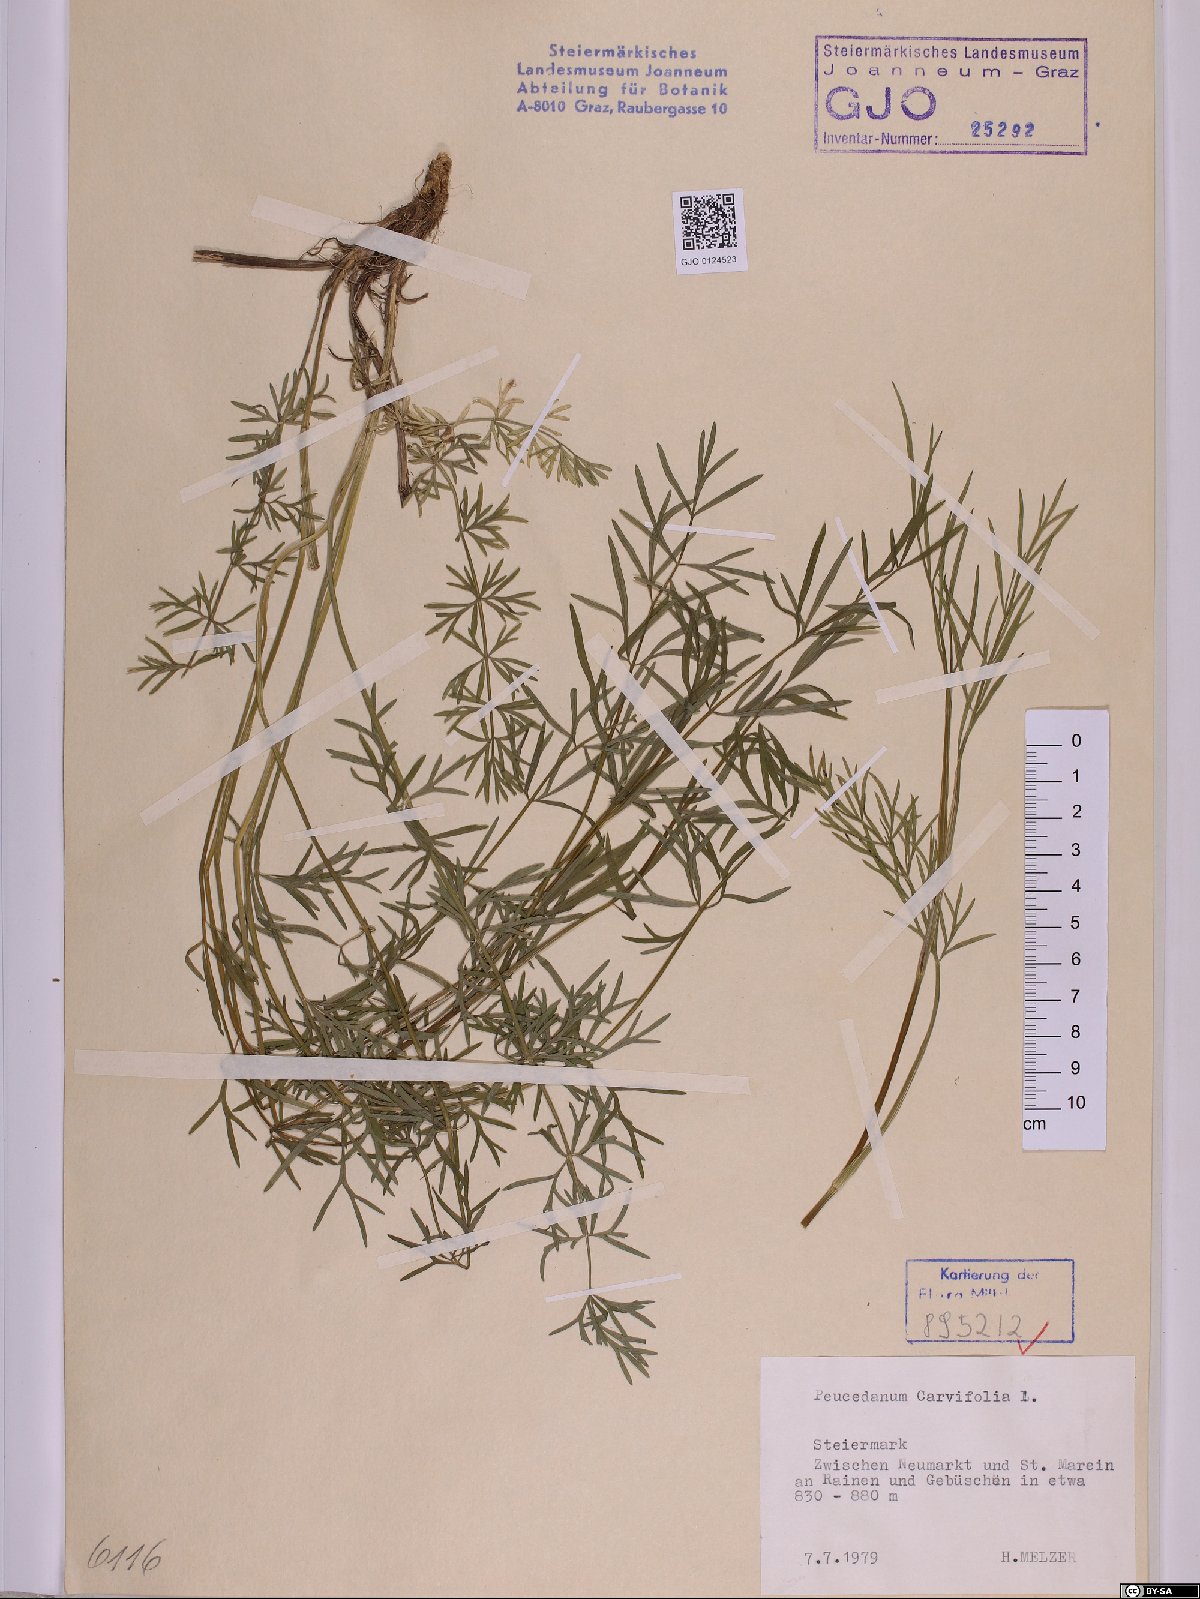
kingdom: Plantae
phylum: Tracheophyta
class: Magnoliopsida
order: Apiales
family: Apiaceae
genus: Dichoropetalum
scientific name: Dichoropetalum carvifolia
